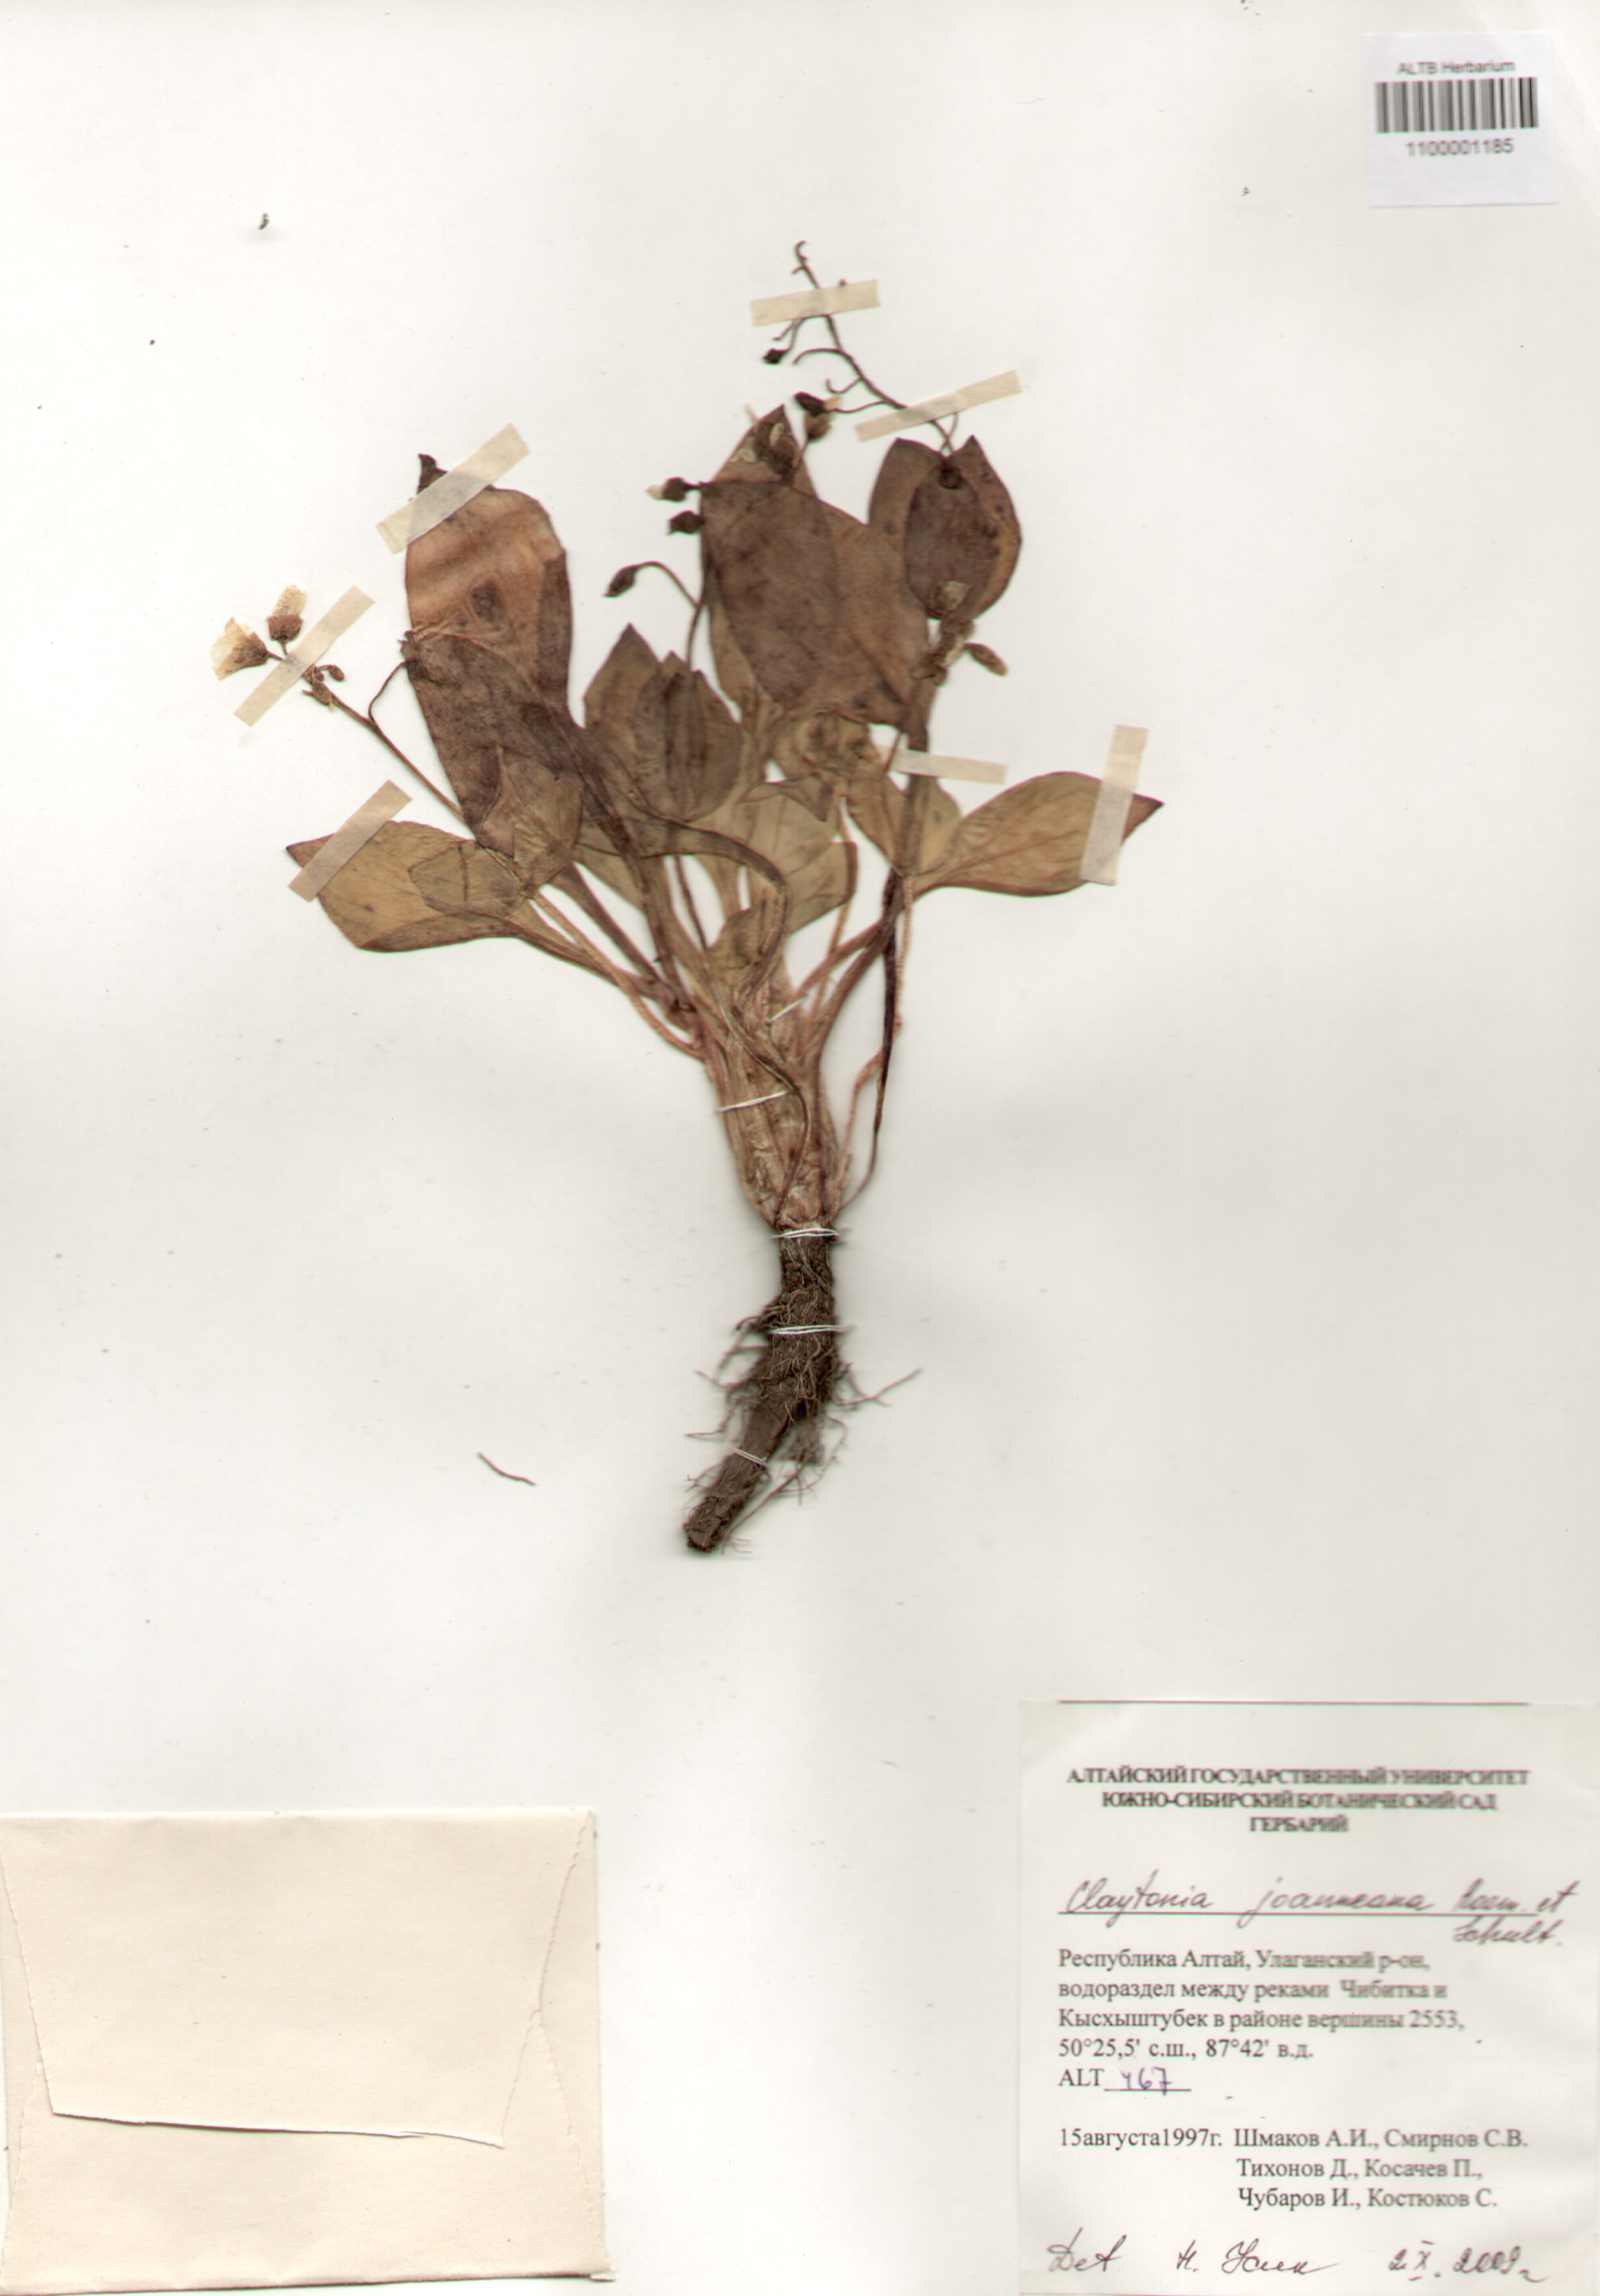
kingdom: Plantae
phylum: Tracheophyta
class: Magnoliopsida
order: Caryophyllales
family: Montiaceae
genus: Claytonia
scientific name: Claytonia joanneana
